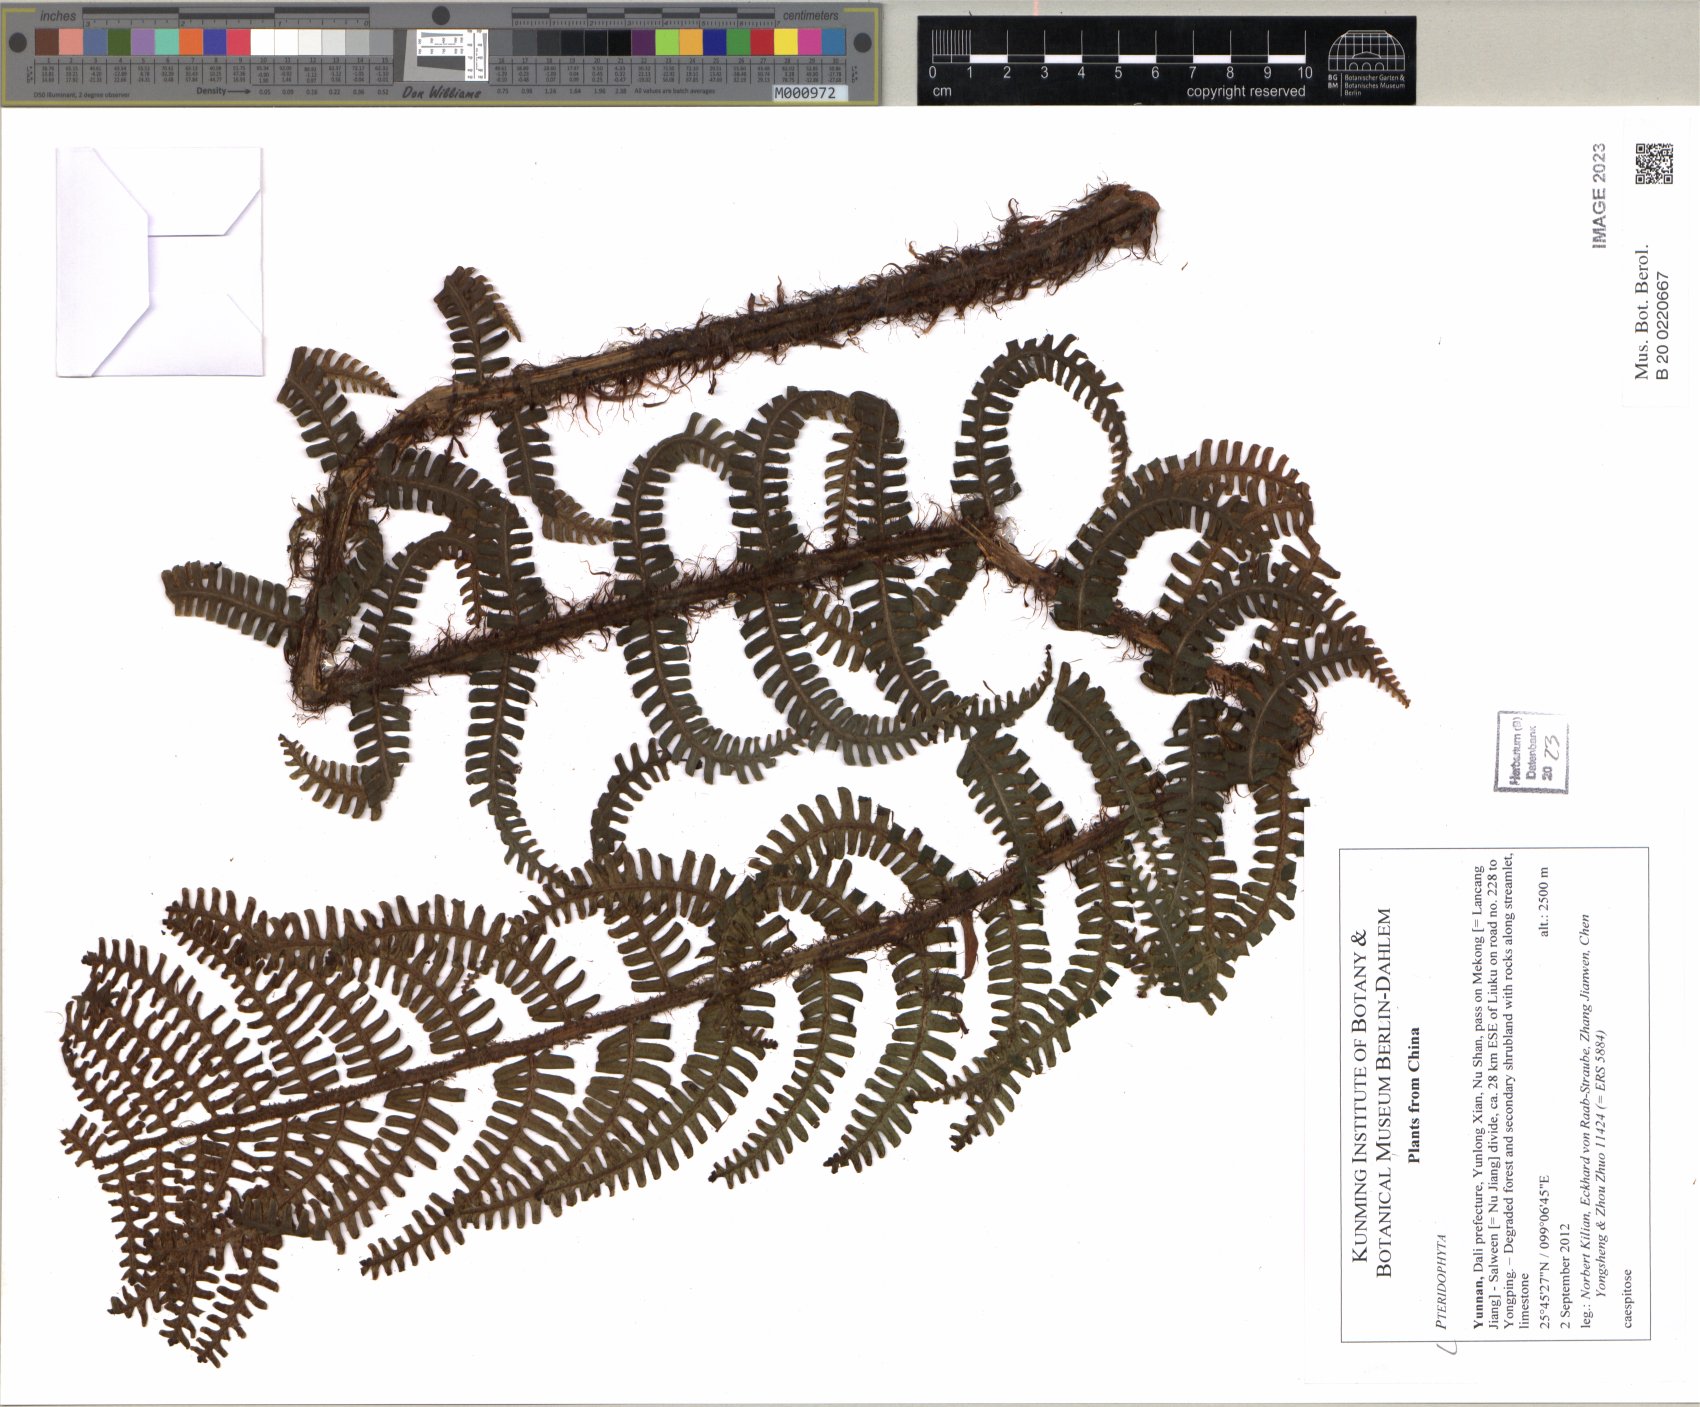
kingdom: Plantae
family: Pteridophyta
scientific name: Pteridophyta
